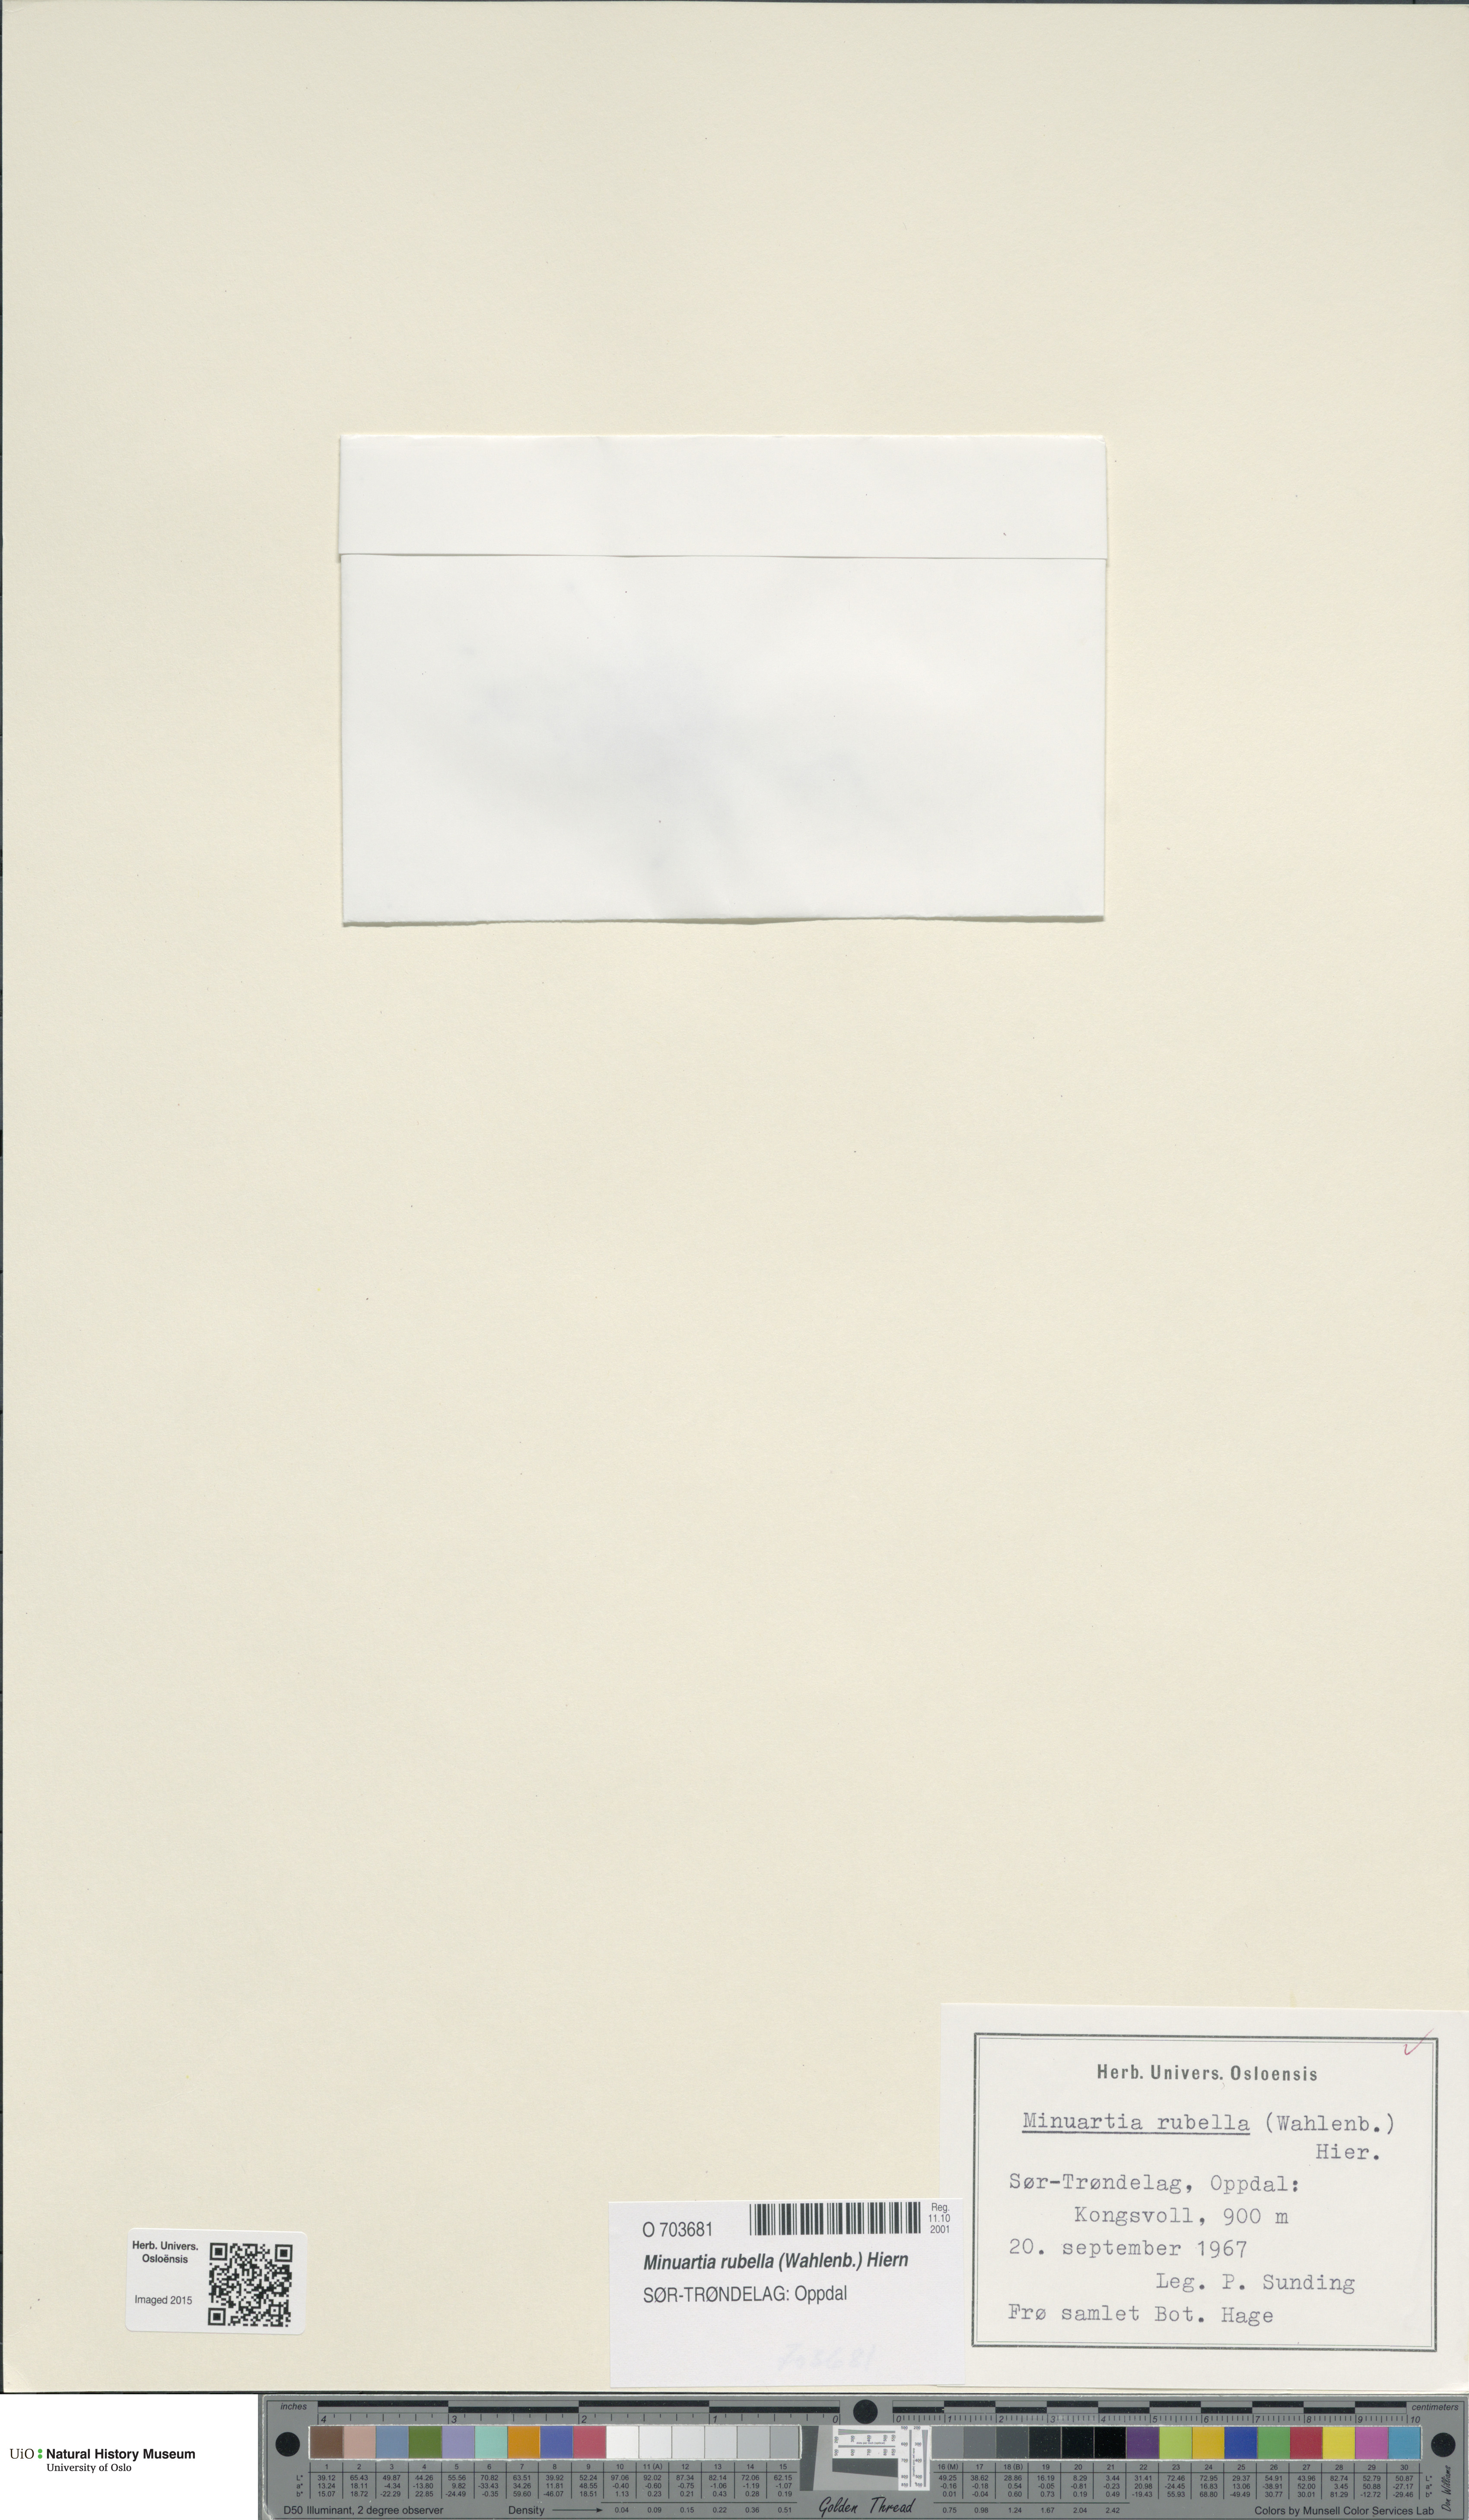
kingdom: Plantae
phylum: Tracheophyta
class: Magnoliopsida
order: Caryophyllales
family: Caryophyllaceae
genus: Sabulina
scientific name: Sabulina rubella
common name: Beautiful sandwort
